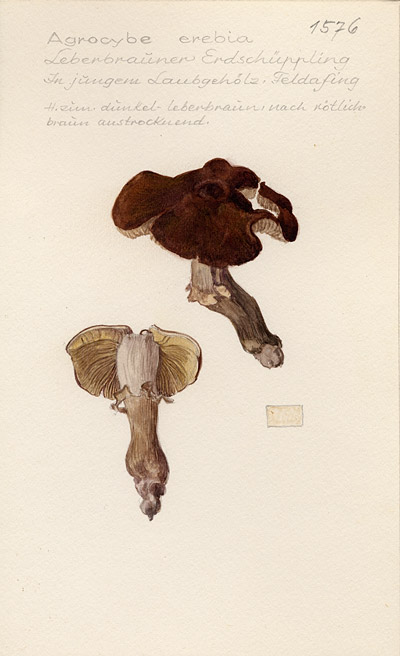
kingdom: Fungi
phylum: Basidiomycota
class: Agaricomycetes
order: Agaricales
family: Tubariaceae
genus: Cyclocybe
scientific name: Cyclocybe erebia
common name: Dark fieldcap
